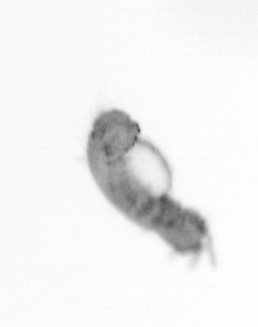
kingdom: Animalia
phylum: Annelida
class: Polychaeta
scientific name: Polychaeta
